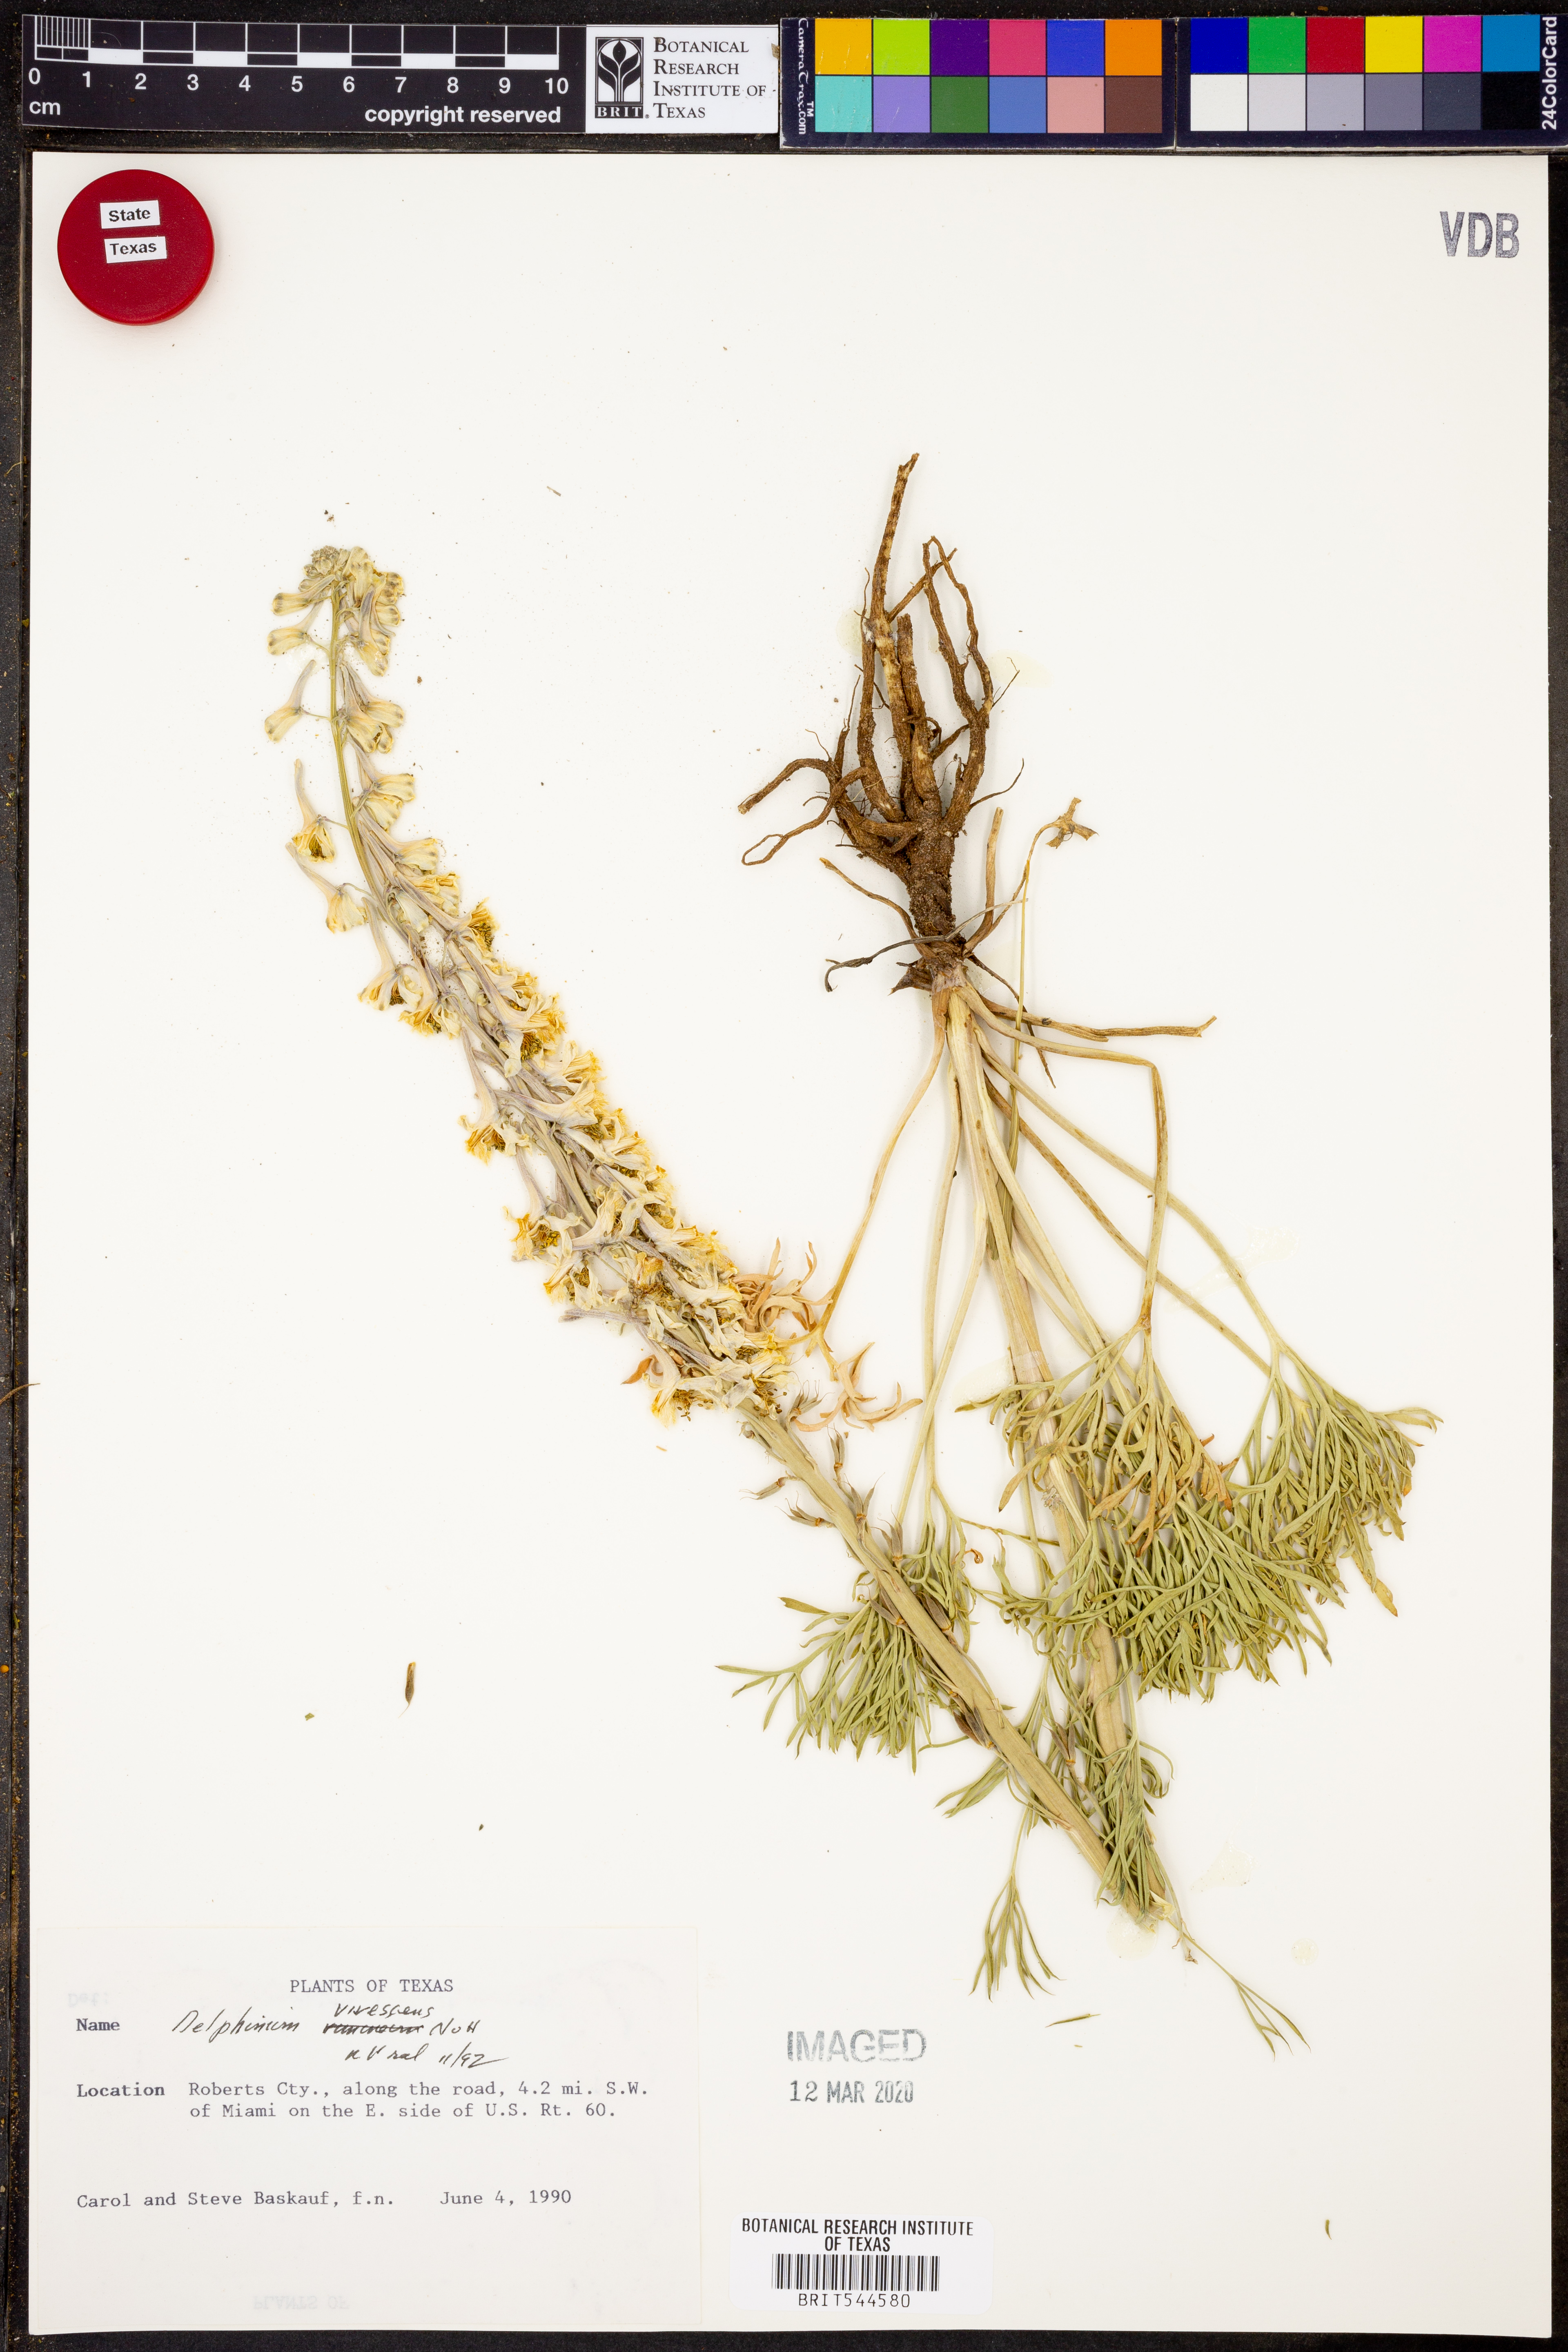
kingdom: Plantae
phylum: Tracheophyta
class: Magnoliopsida
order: Ranunculales
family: Ranunculaceae
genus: Delphinium
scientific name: Delphinium carolinianum
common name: Carolina larkspur
